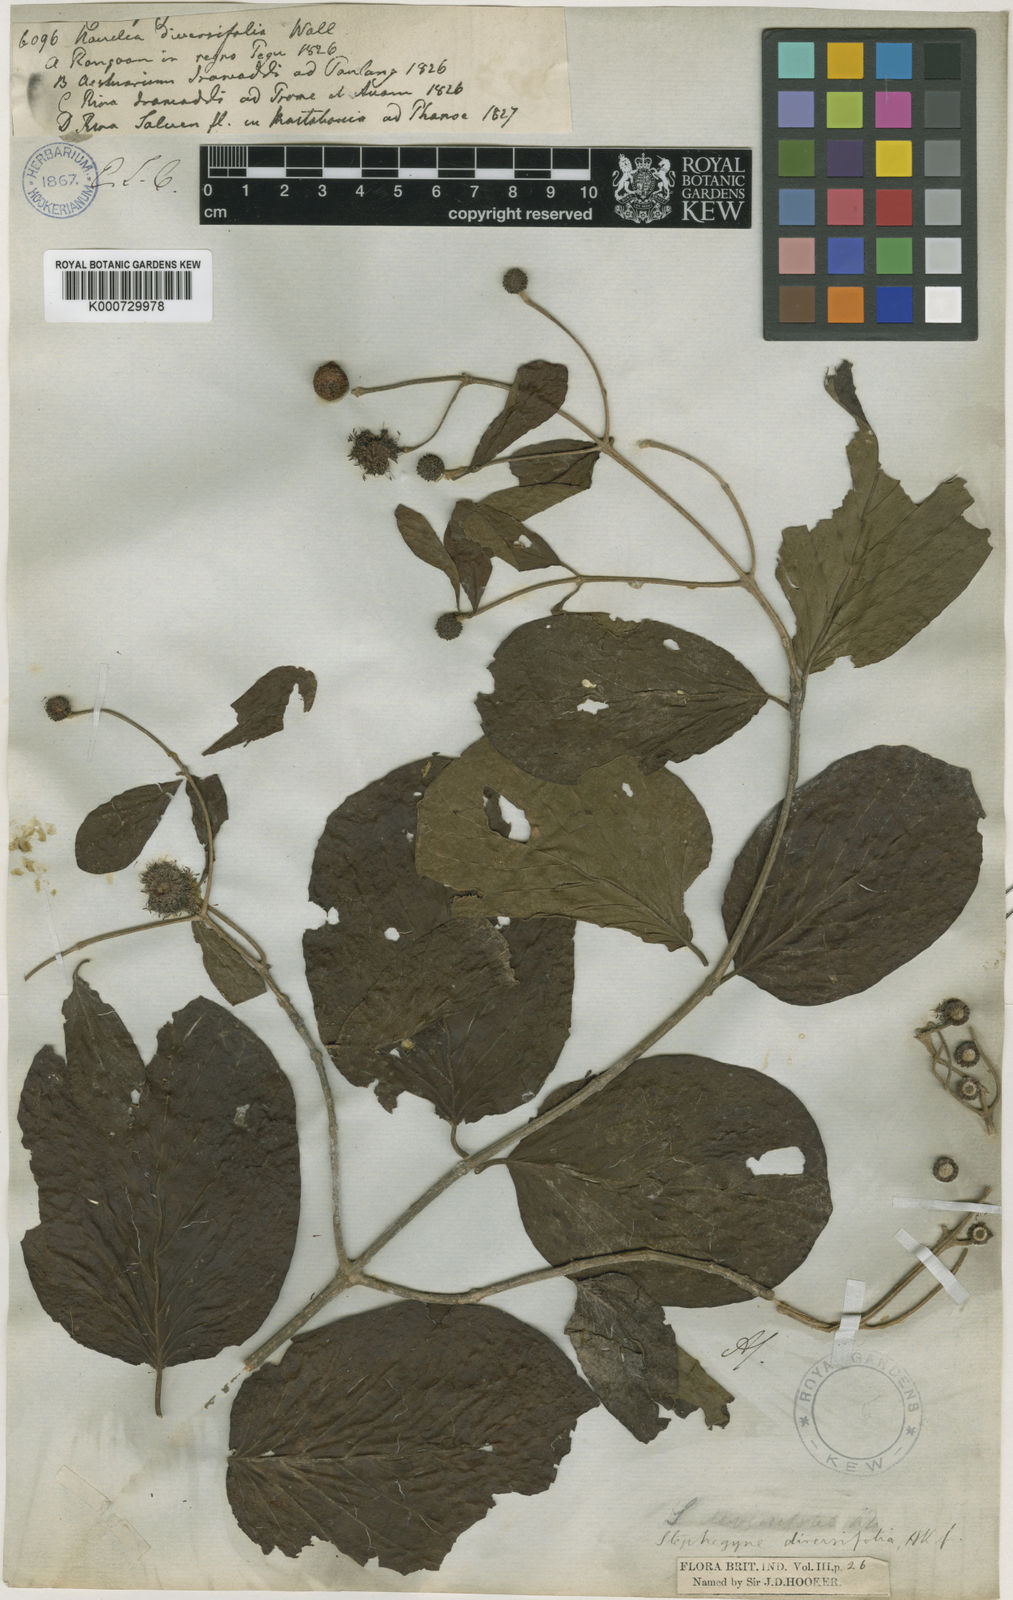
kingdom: Plantae
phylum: Tracheophyta
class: Magnoliopsida
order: Gentianales
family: Rubiaceae
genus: Mitragyna
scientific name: Mitragyna diversifolia
